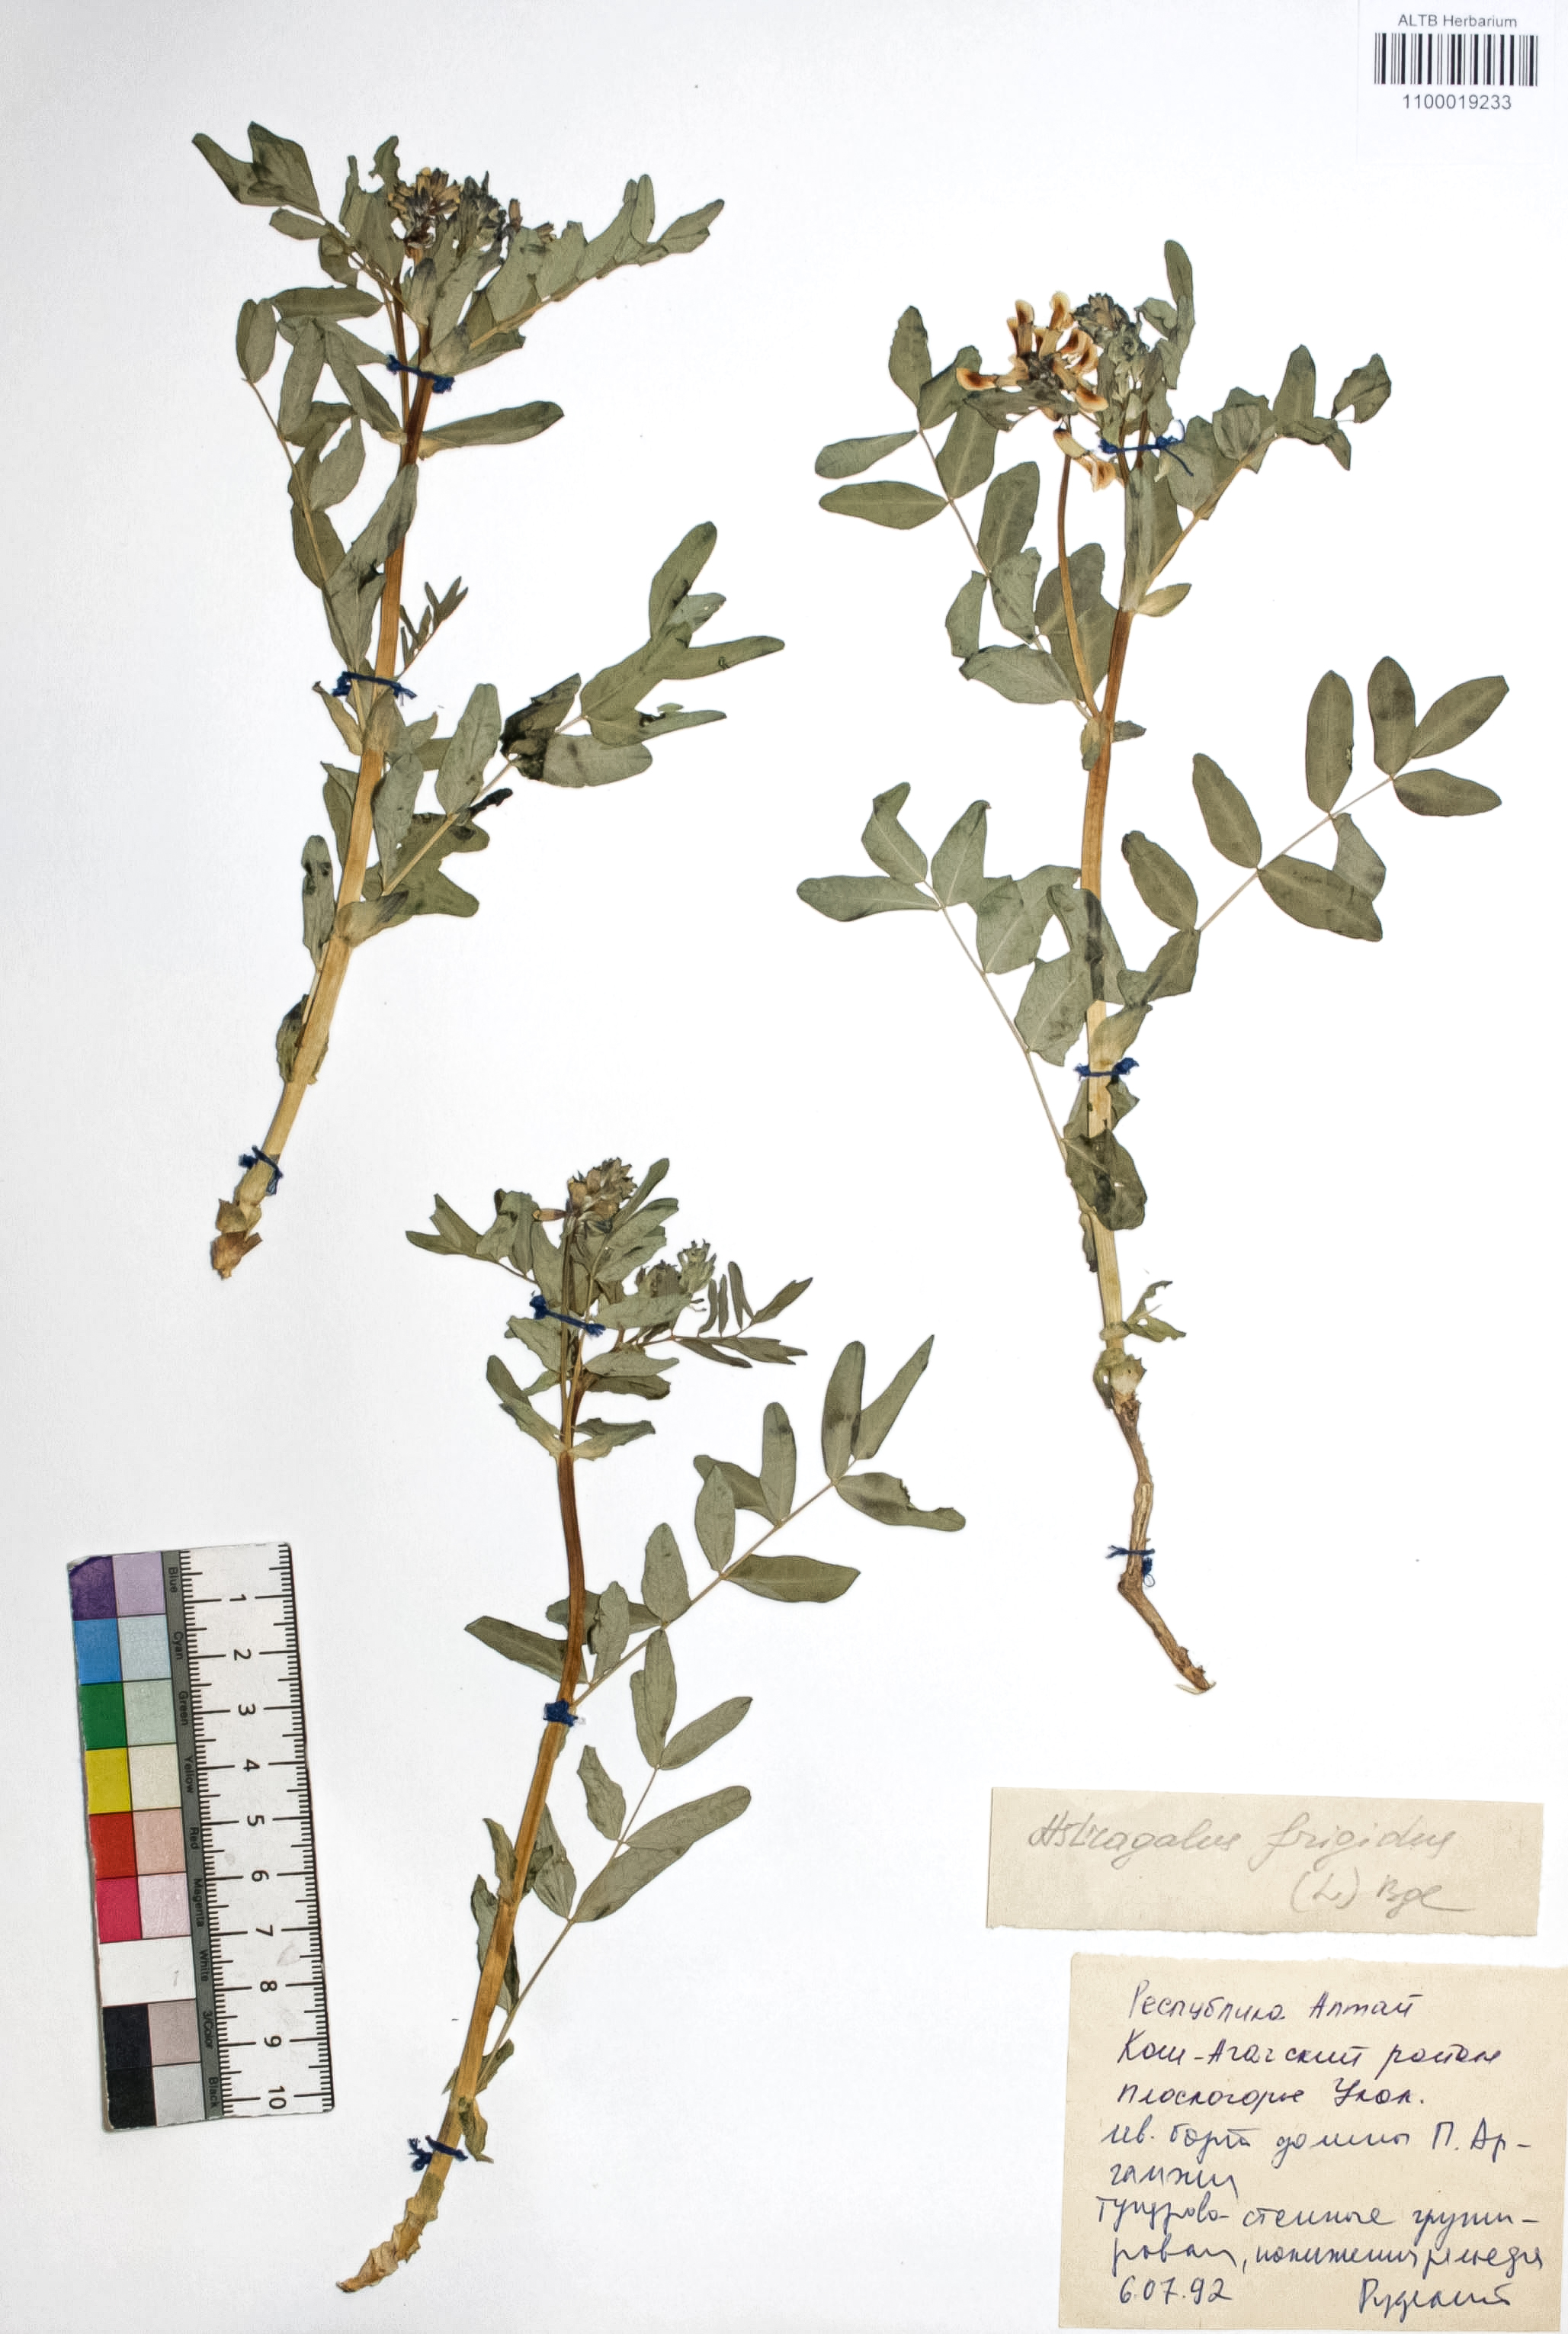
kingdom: Plantae
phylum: Tracheophyta
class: Magnoliopsida
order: Fabales
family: Fabaceae
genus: Astragalus
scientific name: Astragalus frigidus
